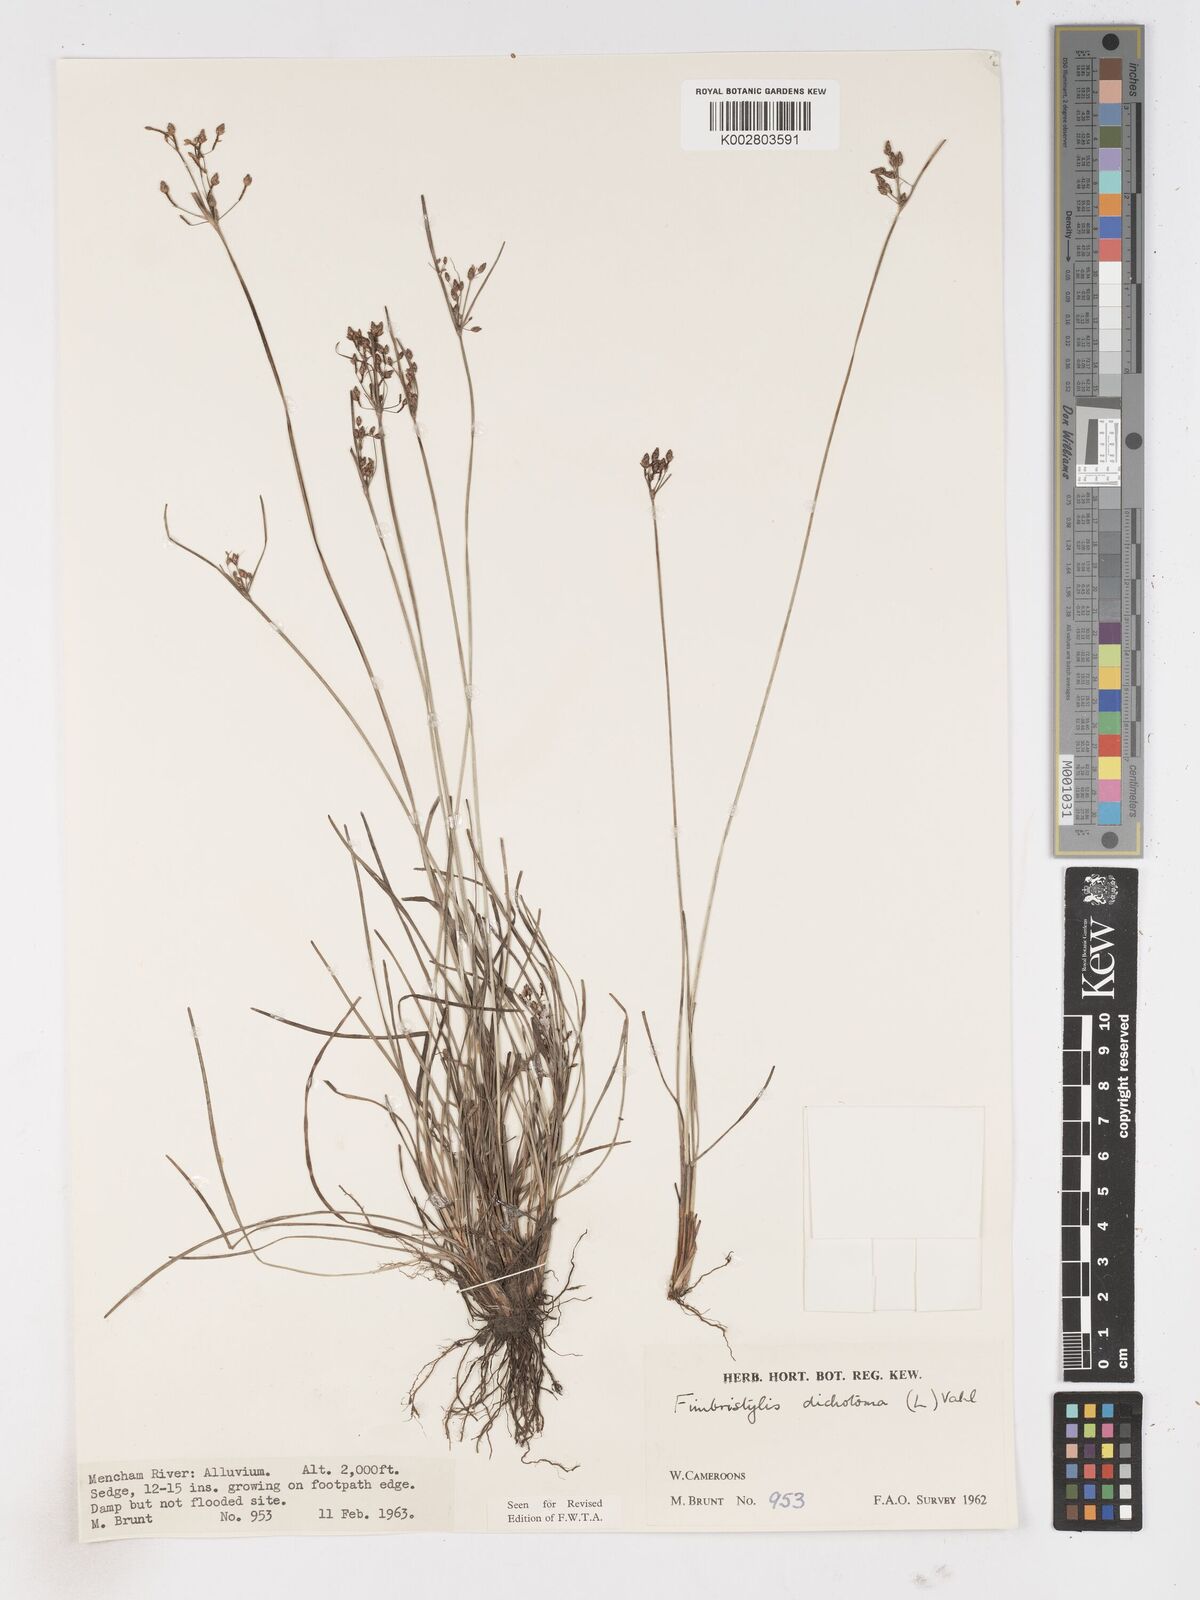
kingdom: Plantae
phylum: Tracheophyta
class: Liliopsida
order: Poales
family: Cyperaceae
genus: Fimbristylis
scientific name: Fimbristylis dichotoma
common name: Forked fimbry
